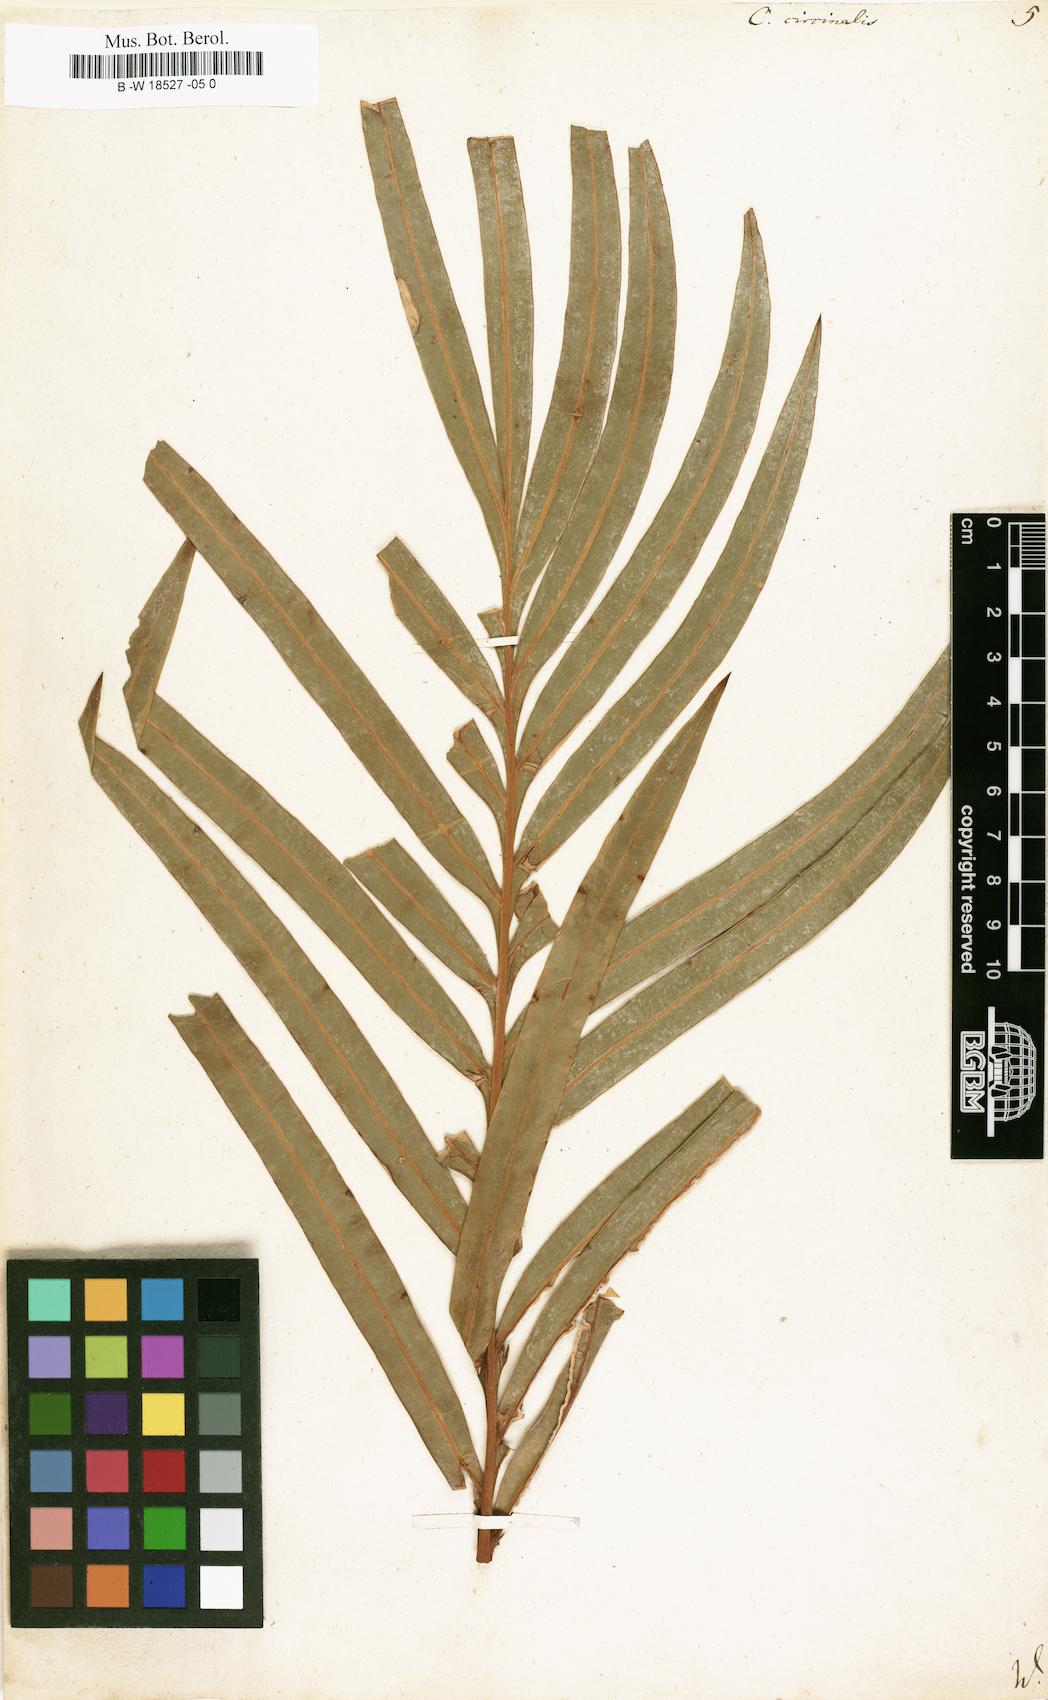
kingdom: Plantae
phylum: Tracheophyta
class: Cycadopsida
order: Cycadales
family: Cycadaceae
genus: Cycas
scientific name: Cycas circinalis
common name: Queen sago
